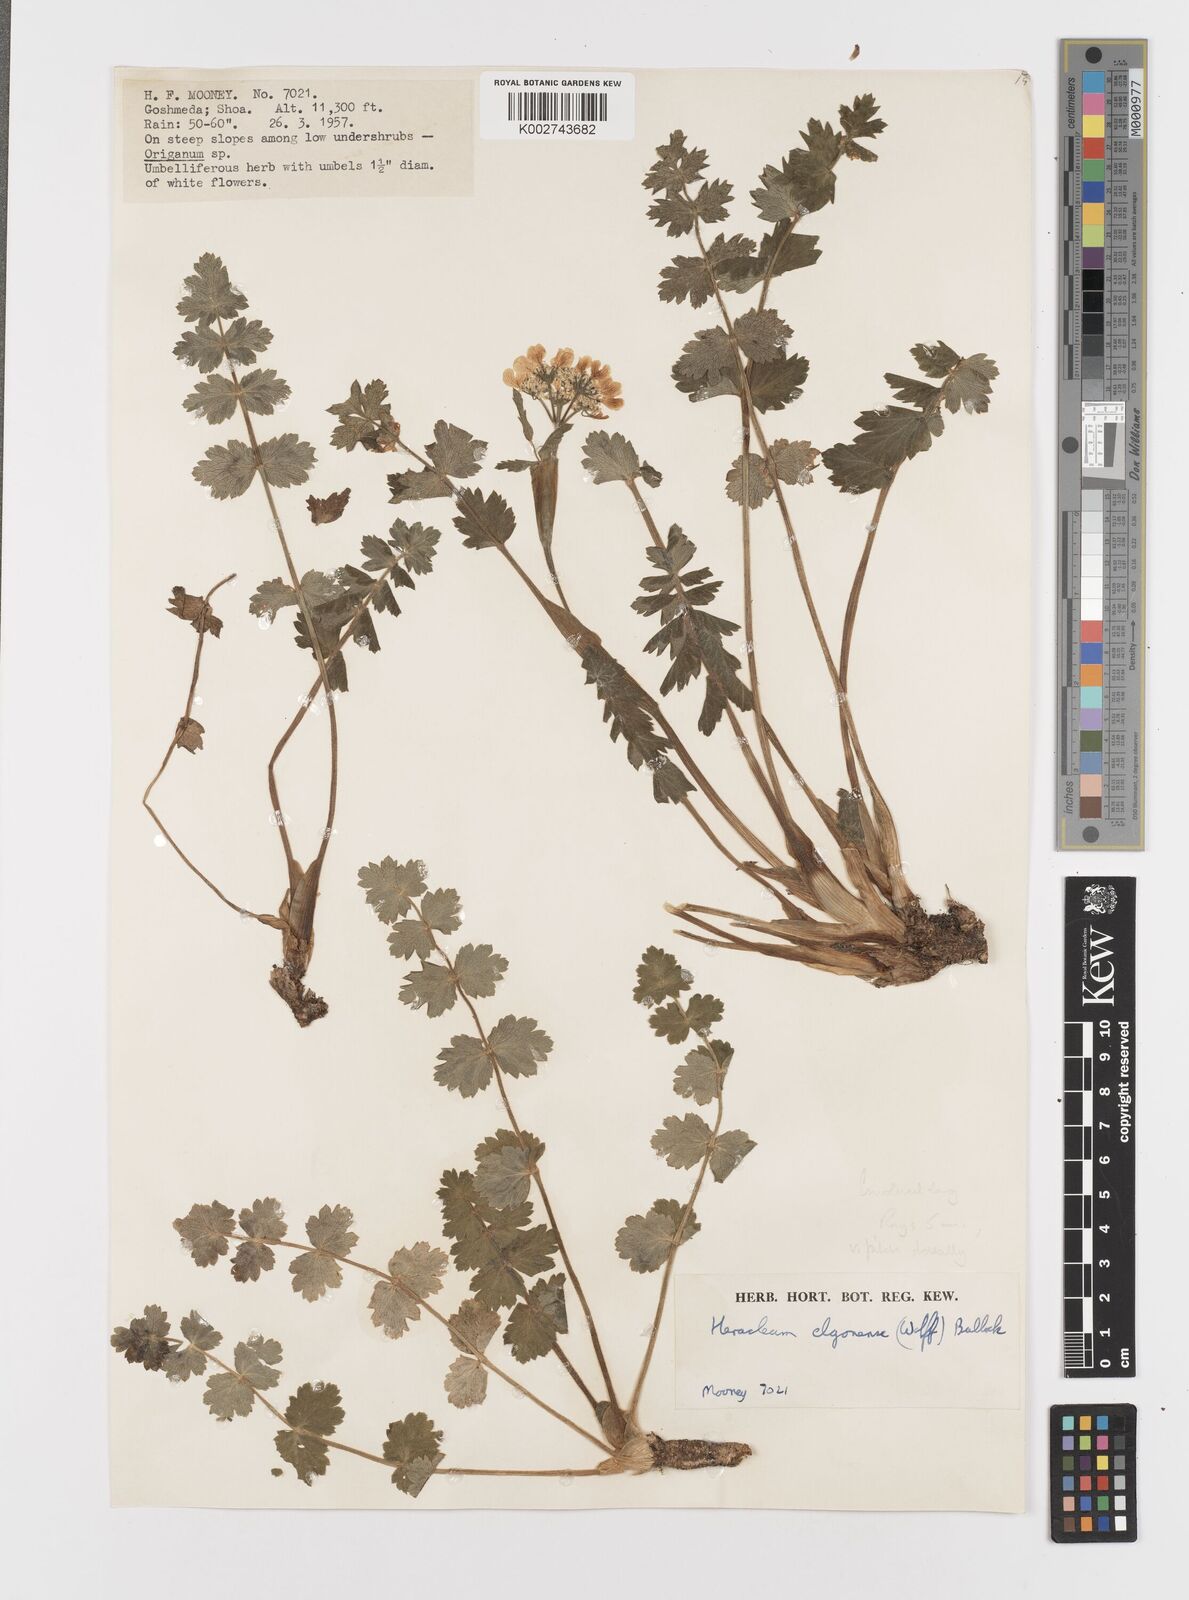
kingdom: Plantae
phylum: Tracheophyta
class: Magnoliopsida
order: Apiales
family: Apiaceae
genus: Heracleum
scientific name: Heracleum elgonense
